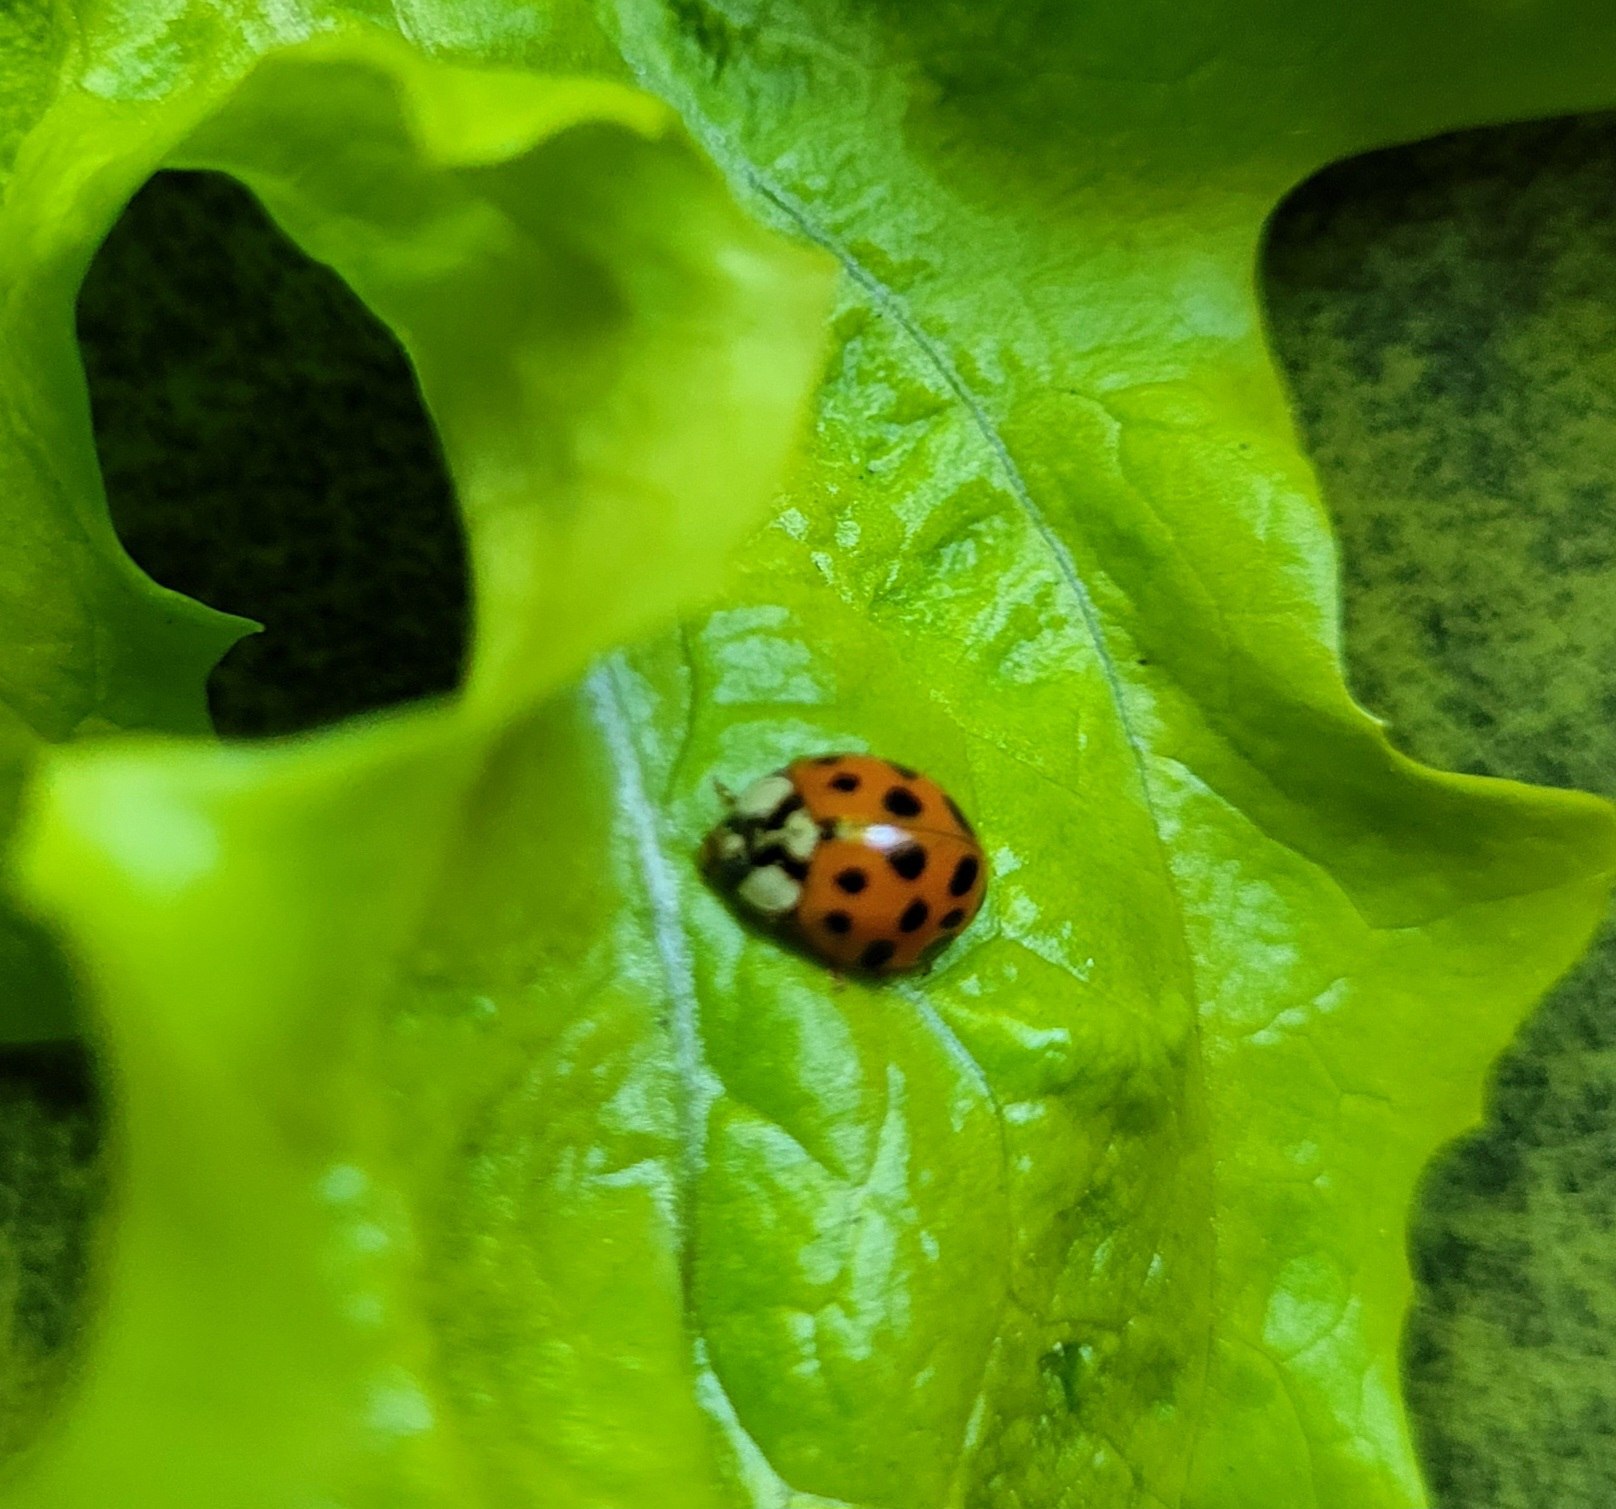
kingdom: Animalia
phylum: Arthropoda
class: Insecta
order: Coleoptera
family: Coccinellidae
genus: Harmonia
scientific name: Harmonia axyridis
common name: Harlekinmariehøne
